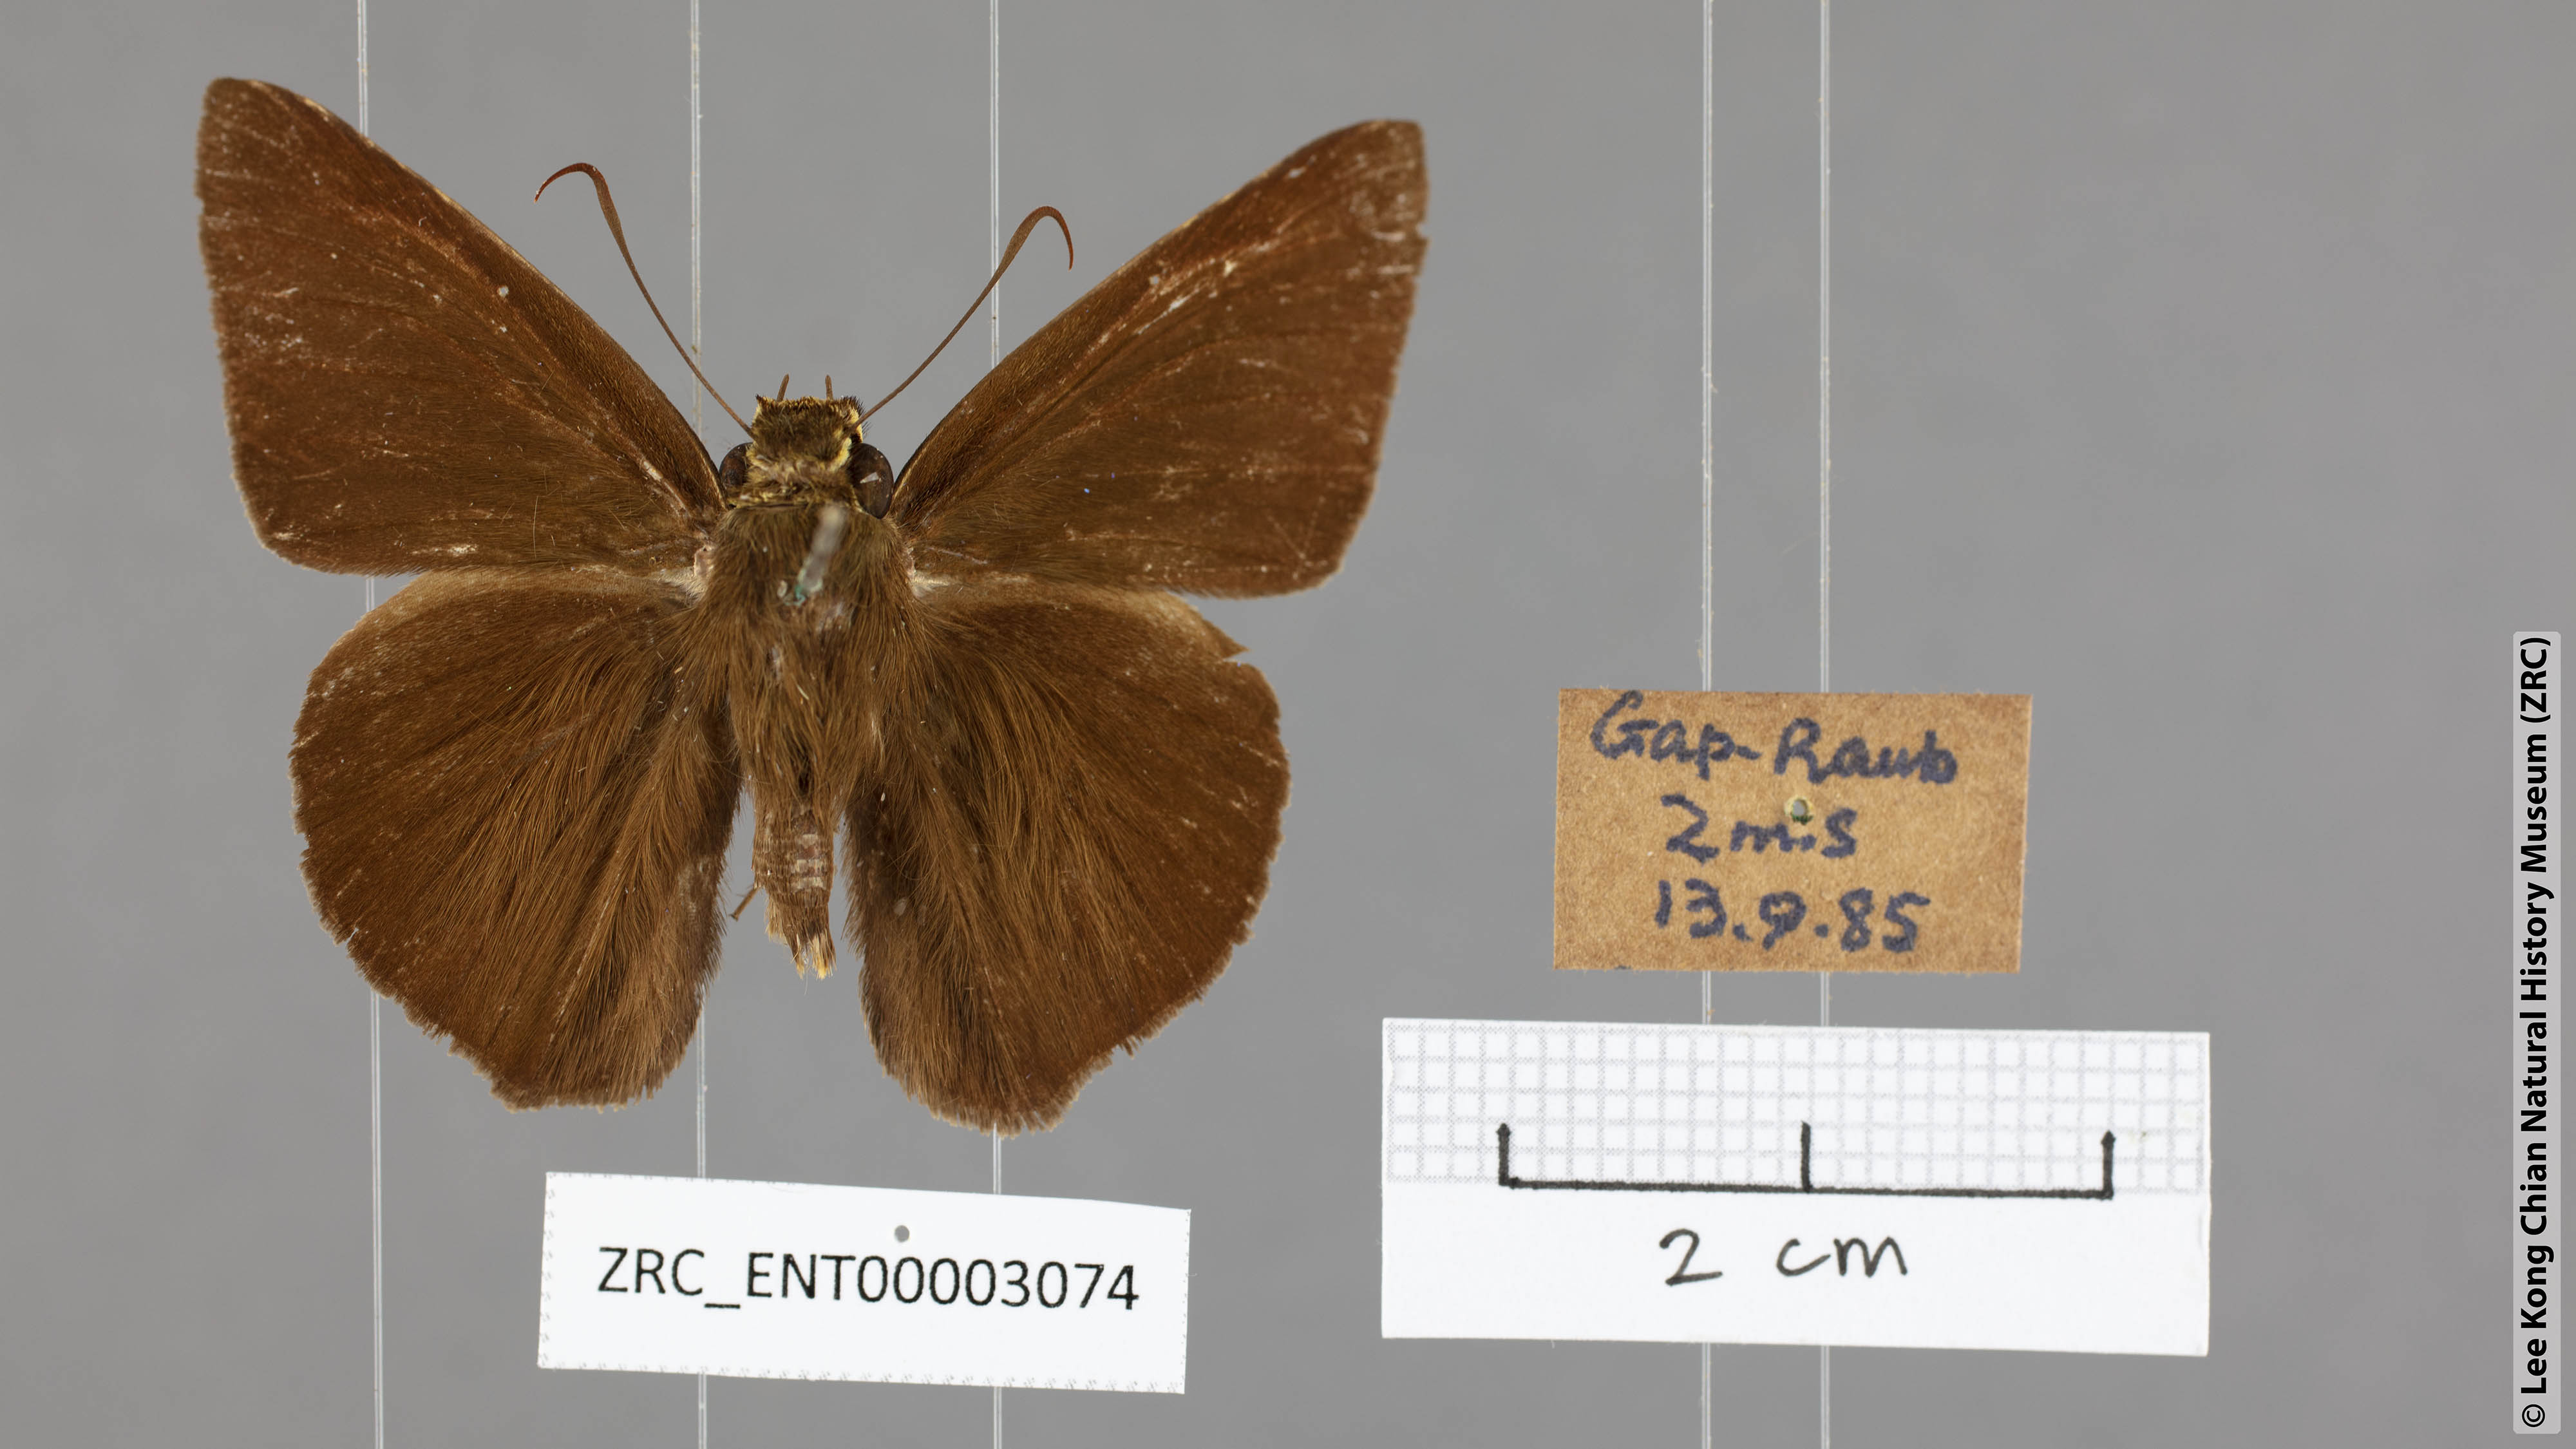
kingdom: Animalia
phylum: Arthropoda
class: Insecta
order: Lepidoptera
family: Hesperiidae
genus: Hasora
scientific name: Hasora salanga
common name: Black-tailed awl
